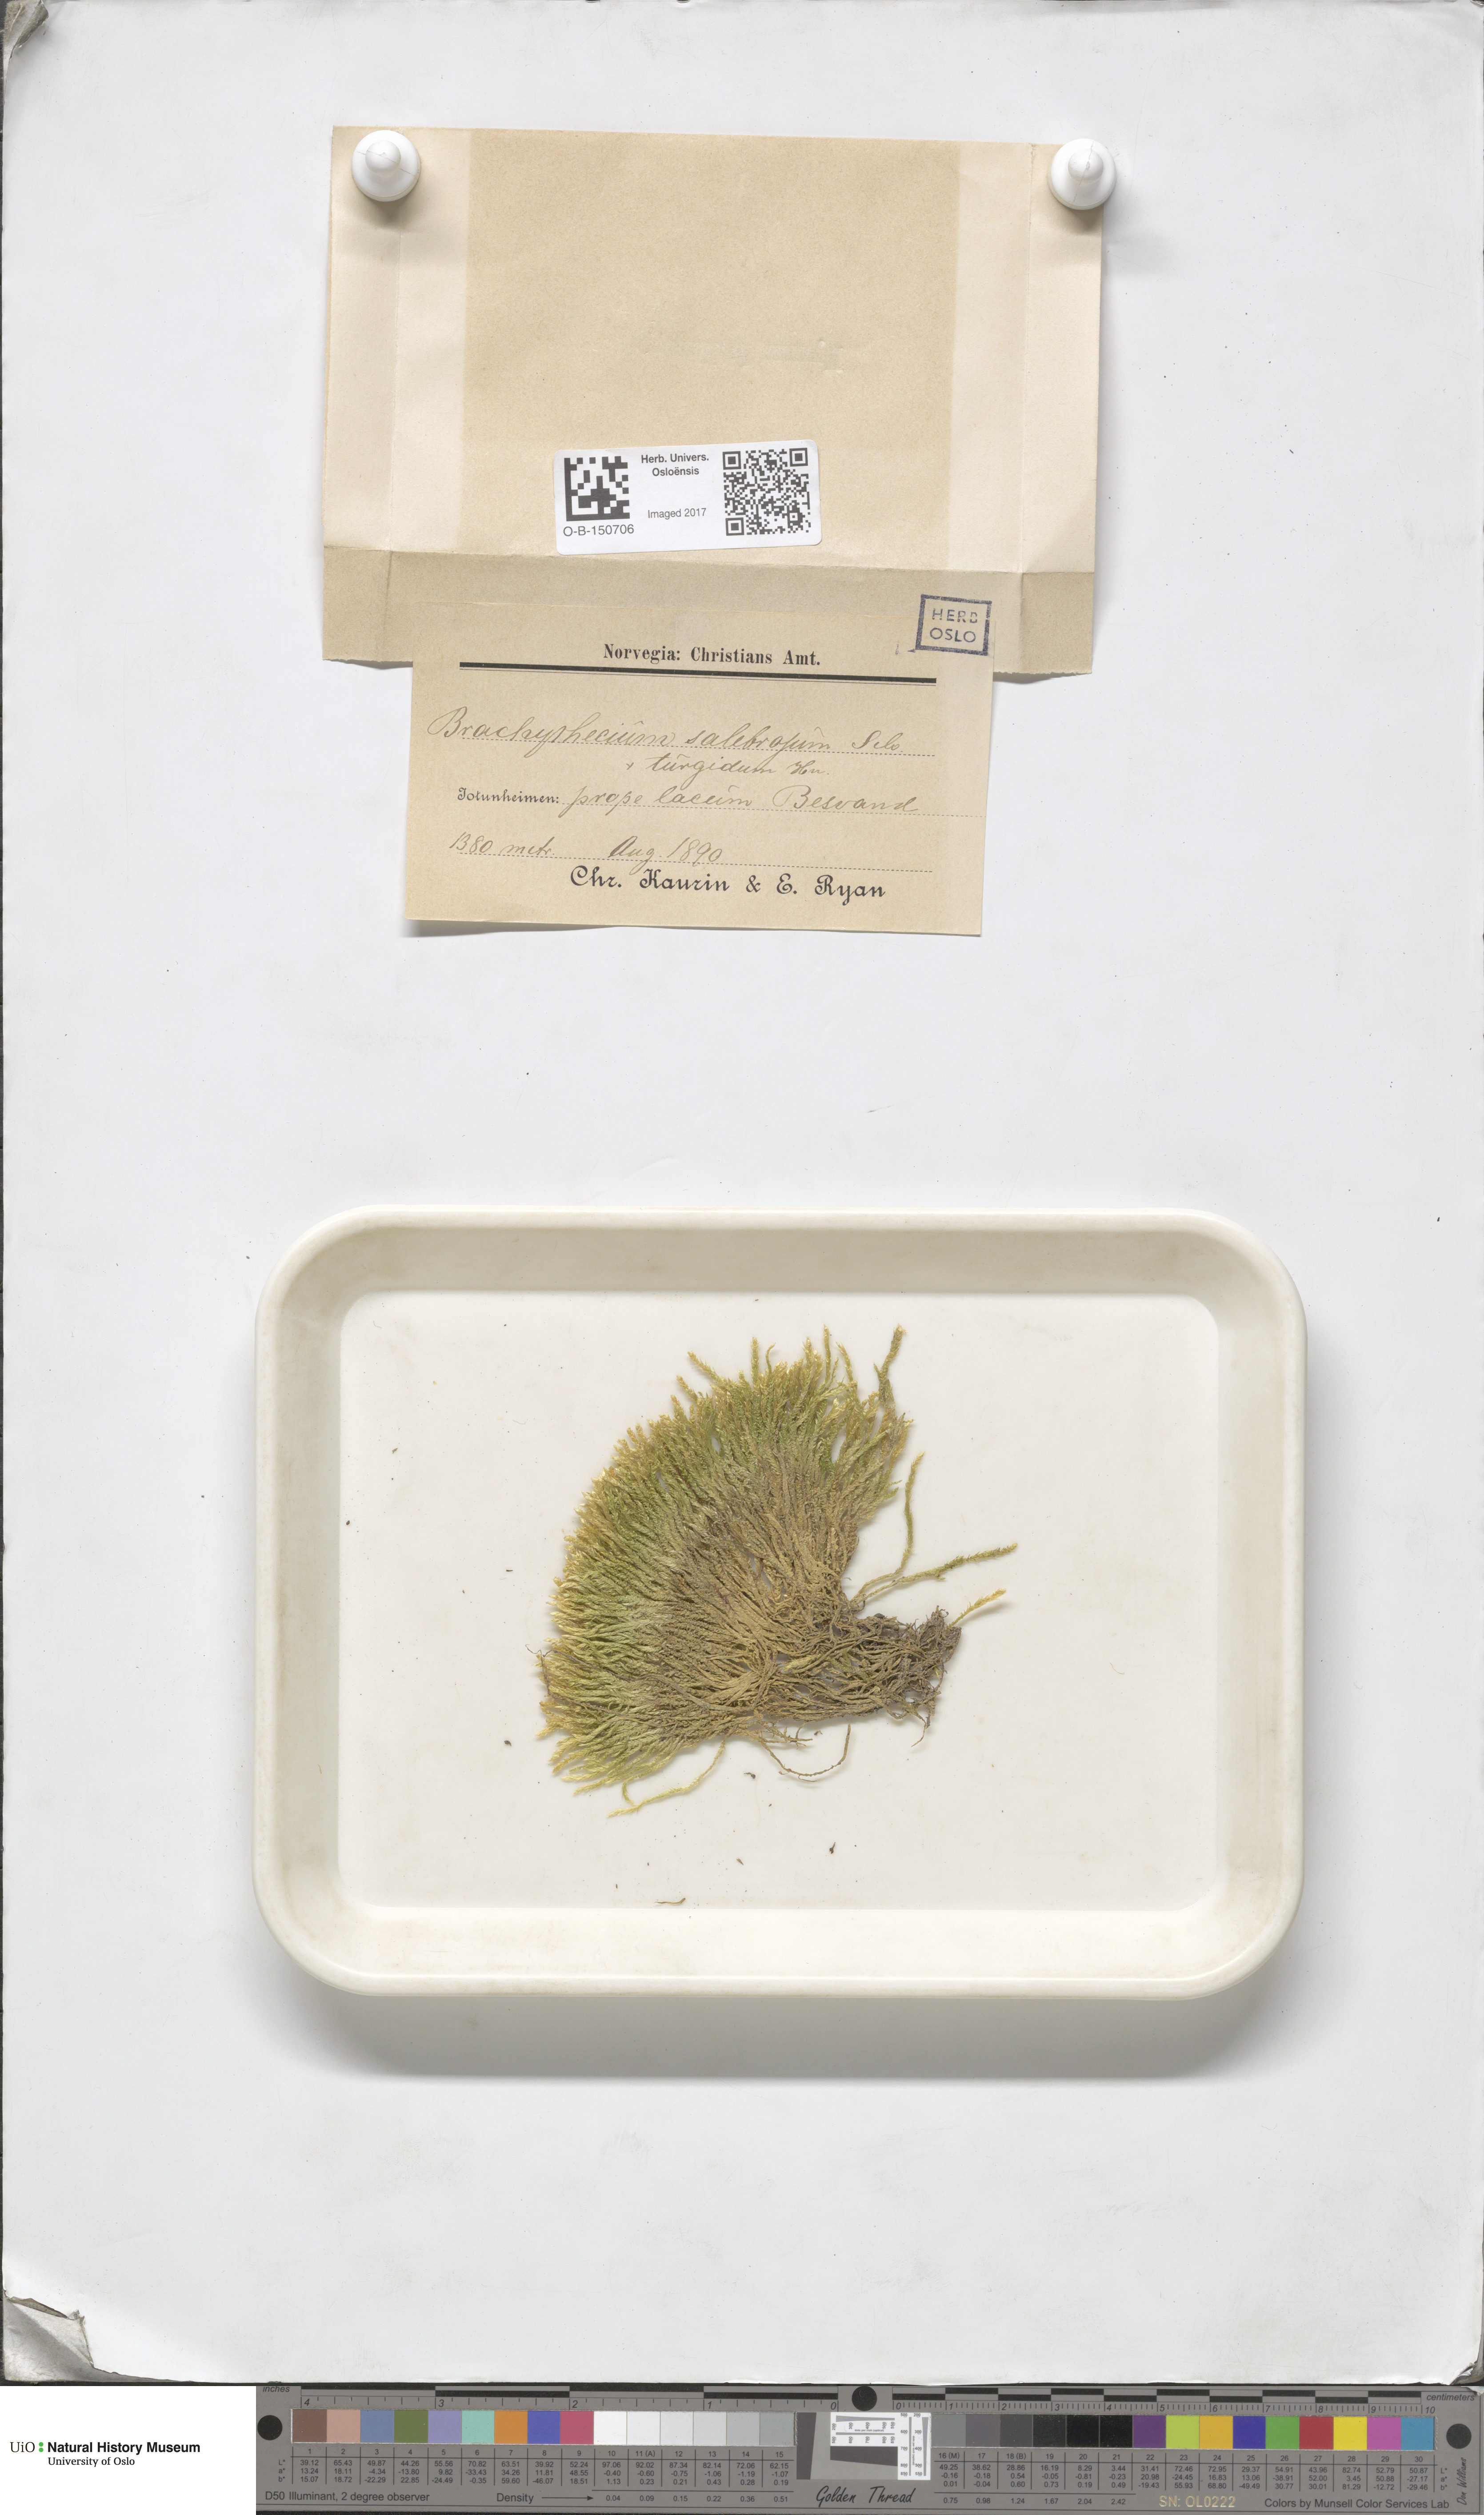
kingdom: Plantae
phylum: Bryophyta
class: Bryopsida
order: Hypnales
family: Brachytheciaceae
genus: Brachythecium
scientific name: Brachythecium turgidum
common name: Thick ragged moss
